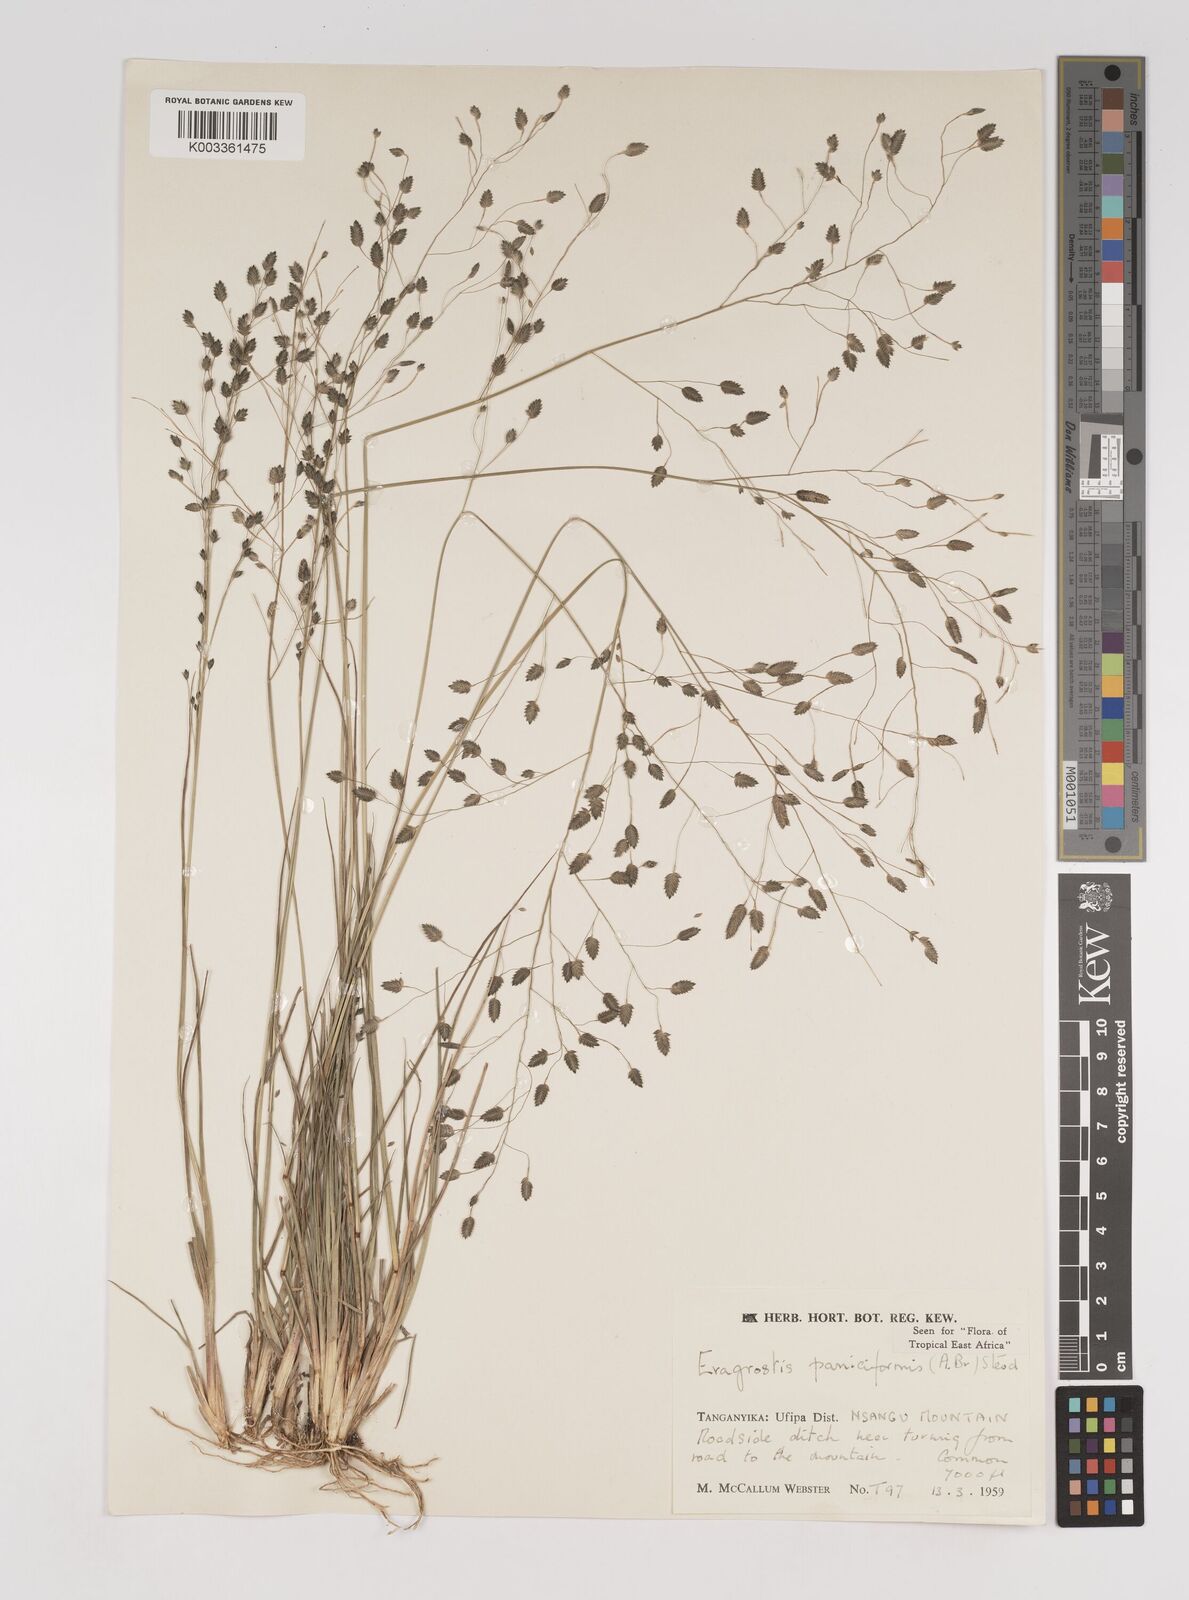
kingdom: Plantae
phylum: Tracheophyta
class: Liliopsida
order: Poales
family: Poaceae
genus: Eragrostis
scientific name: Eragrostis paniciformis
